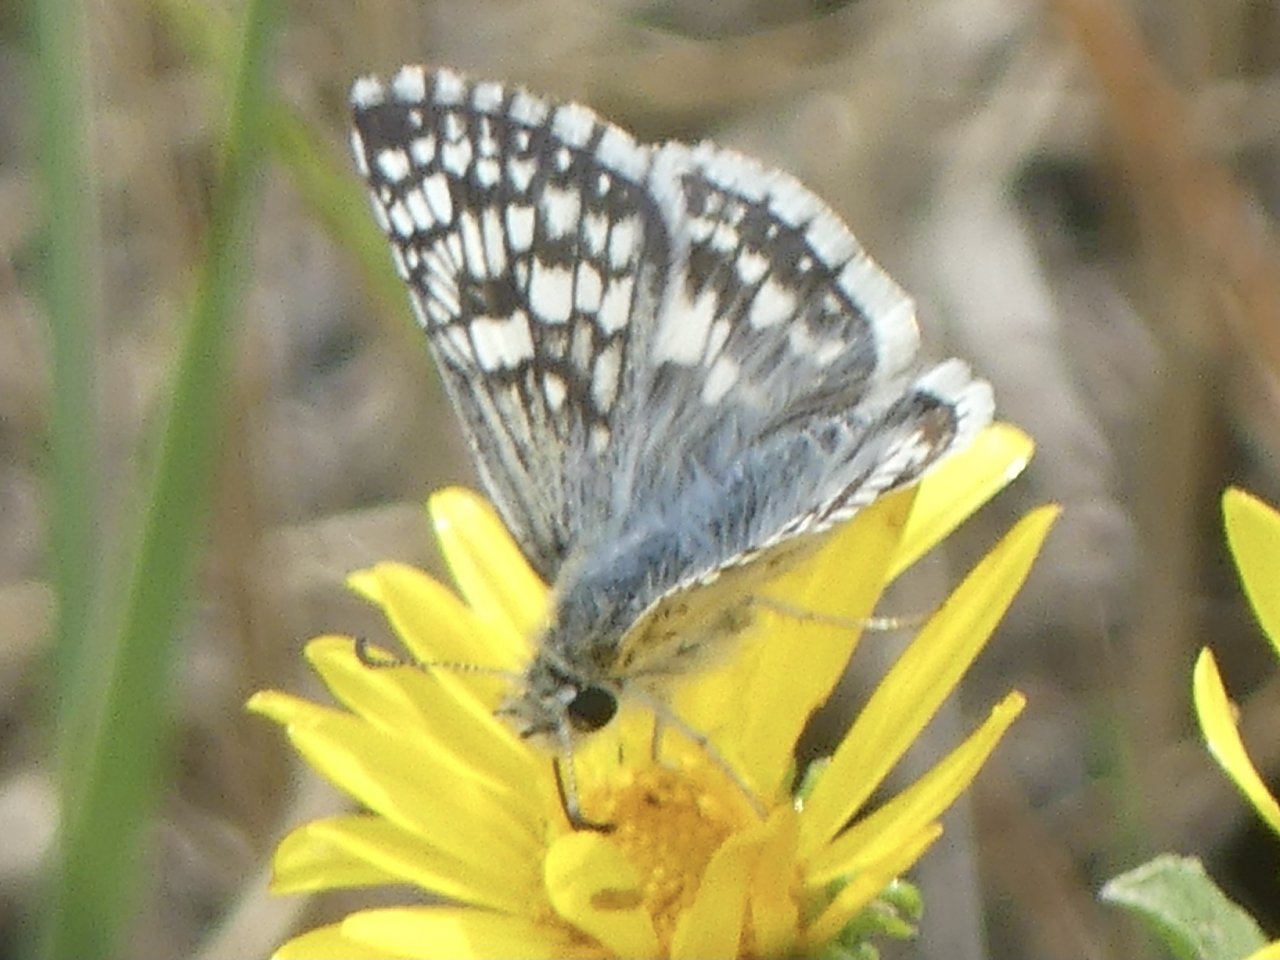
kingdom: Animalia
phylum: Arthropoda
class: Insecta
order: Lepidoptera
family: Hesperiidae
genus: Pyrgus
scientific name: Pyrgus communis
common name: Common Checkered-Skipper
